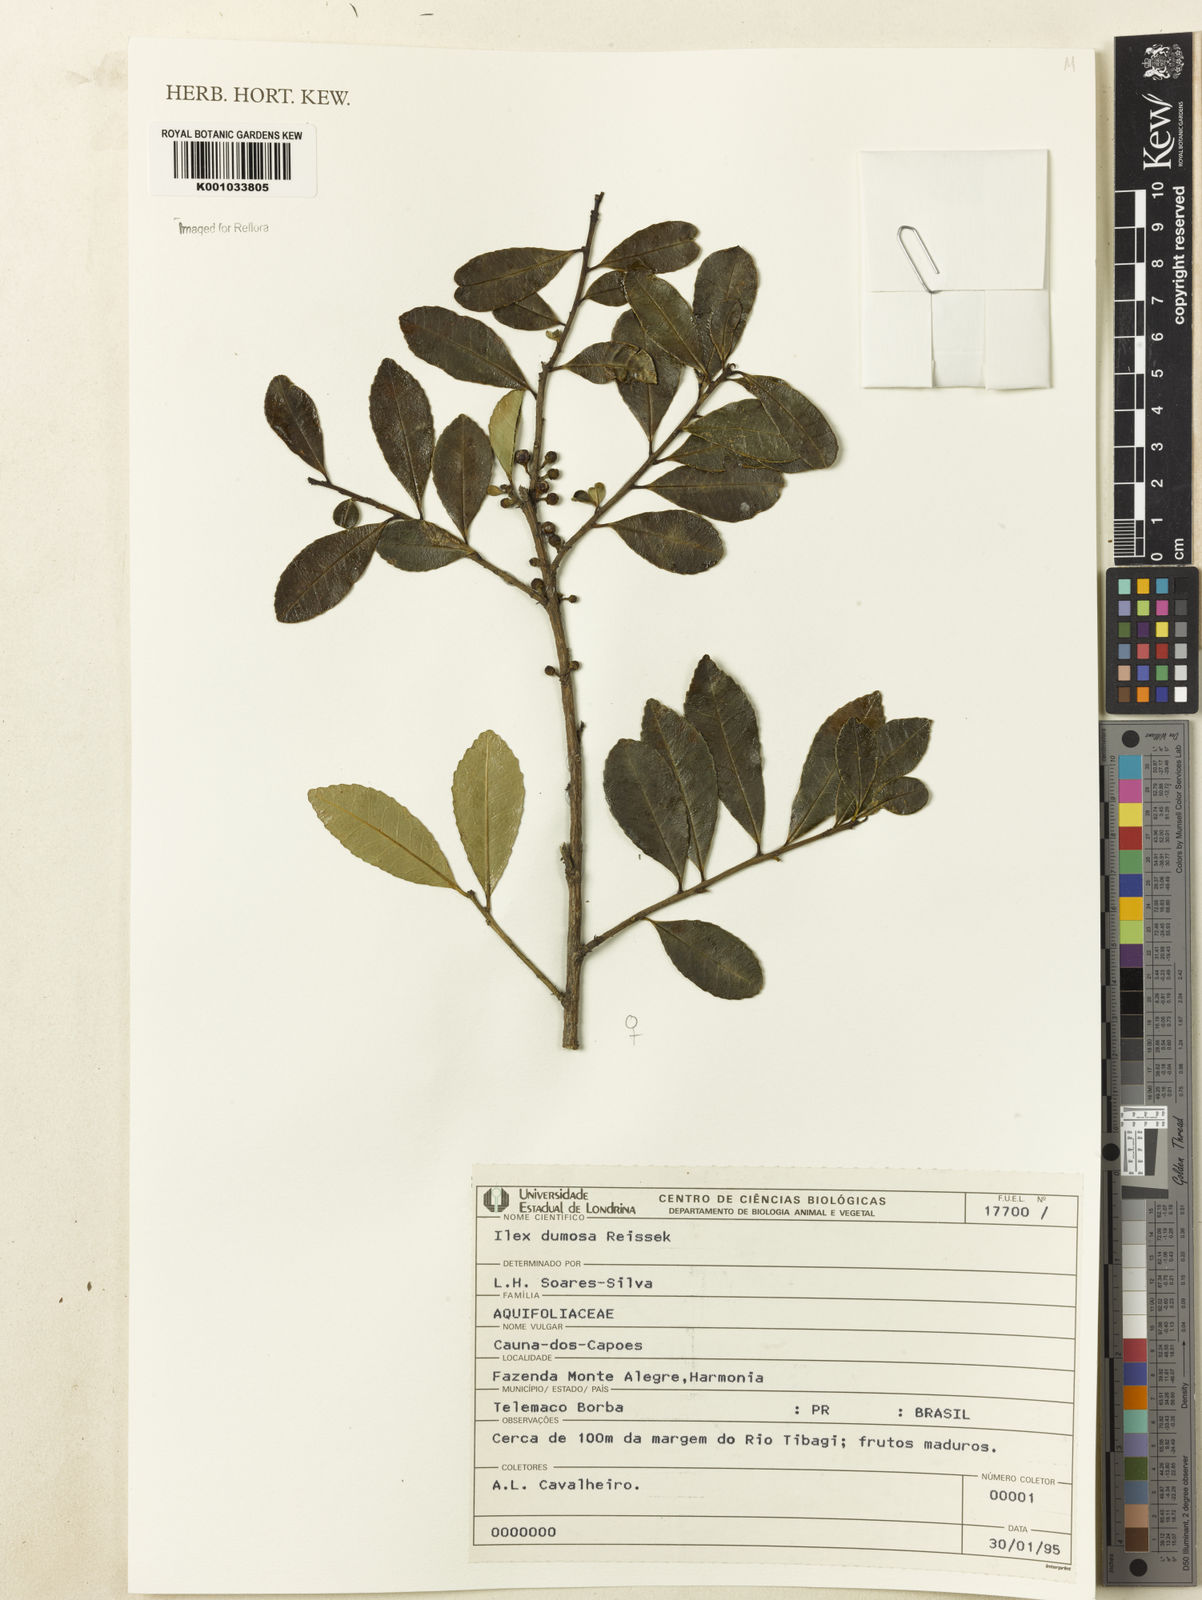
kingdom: Plantae
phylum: Tracheophyta
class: Magnoliopsida
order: Aquifoliales
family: Aquifoliaceae
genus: Ilex
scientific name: Ilex dumosa
